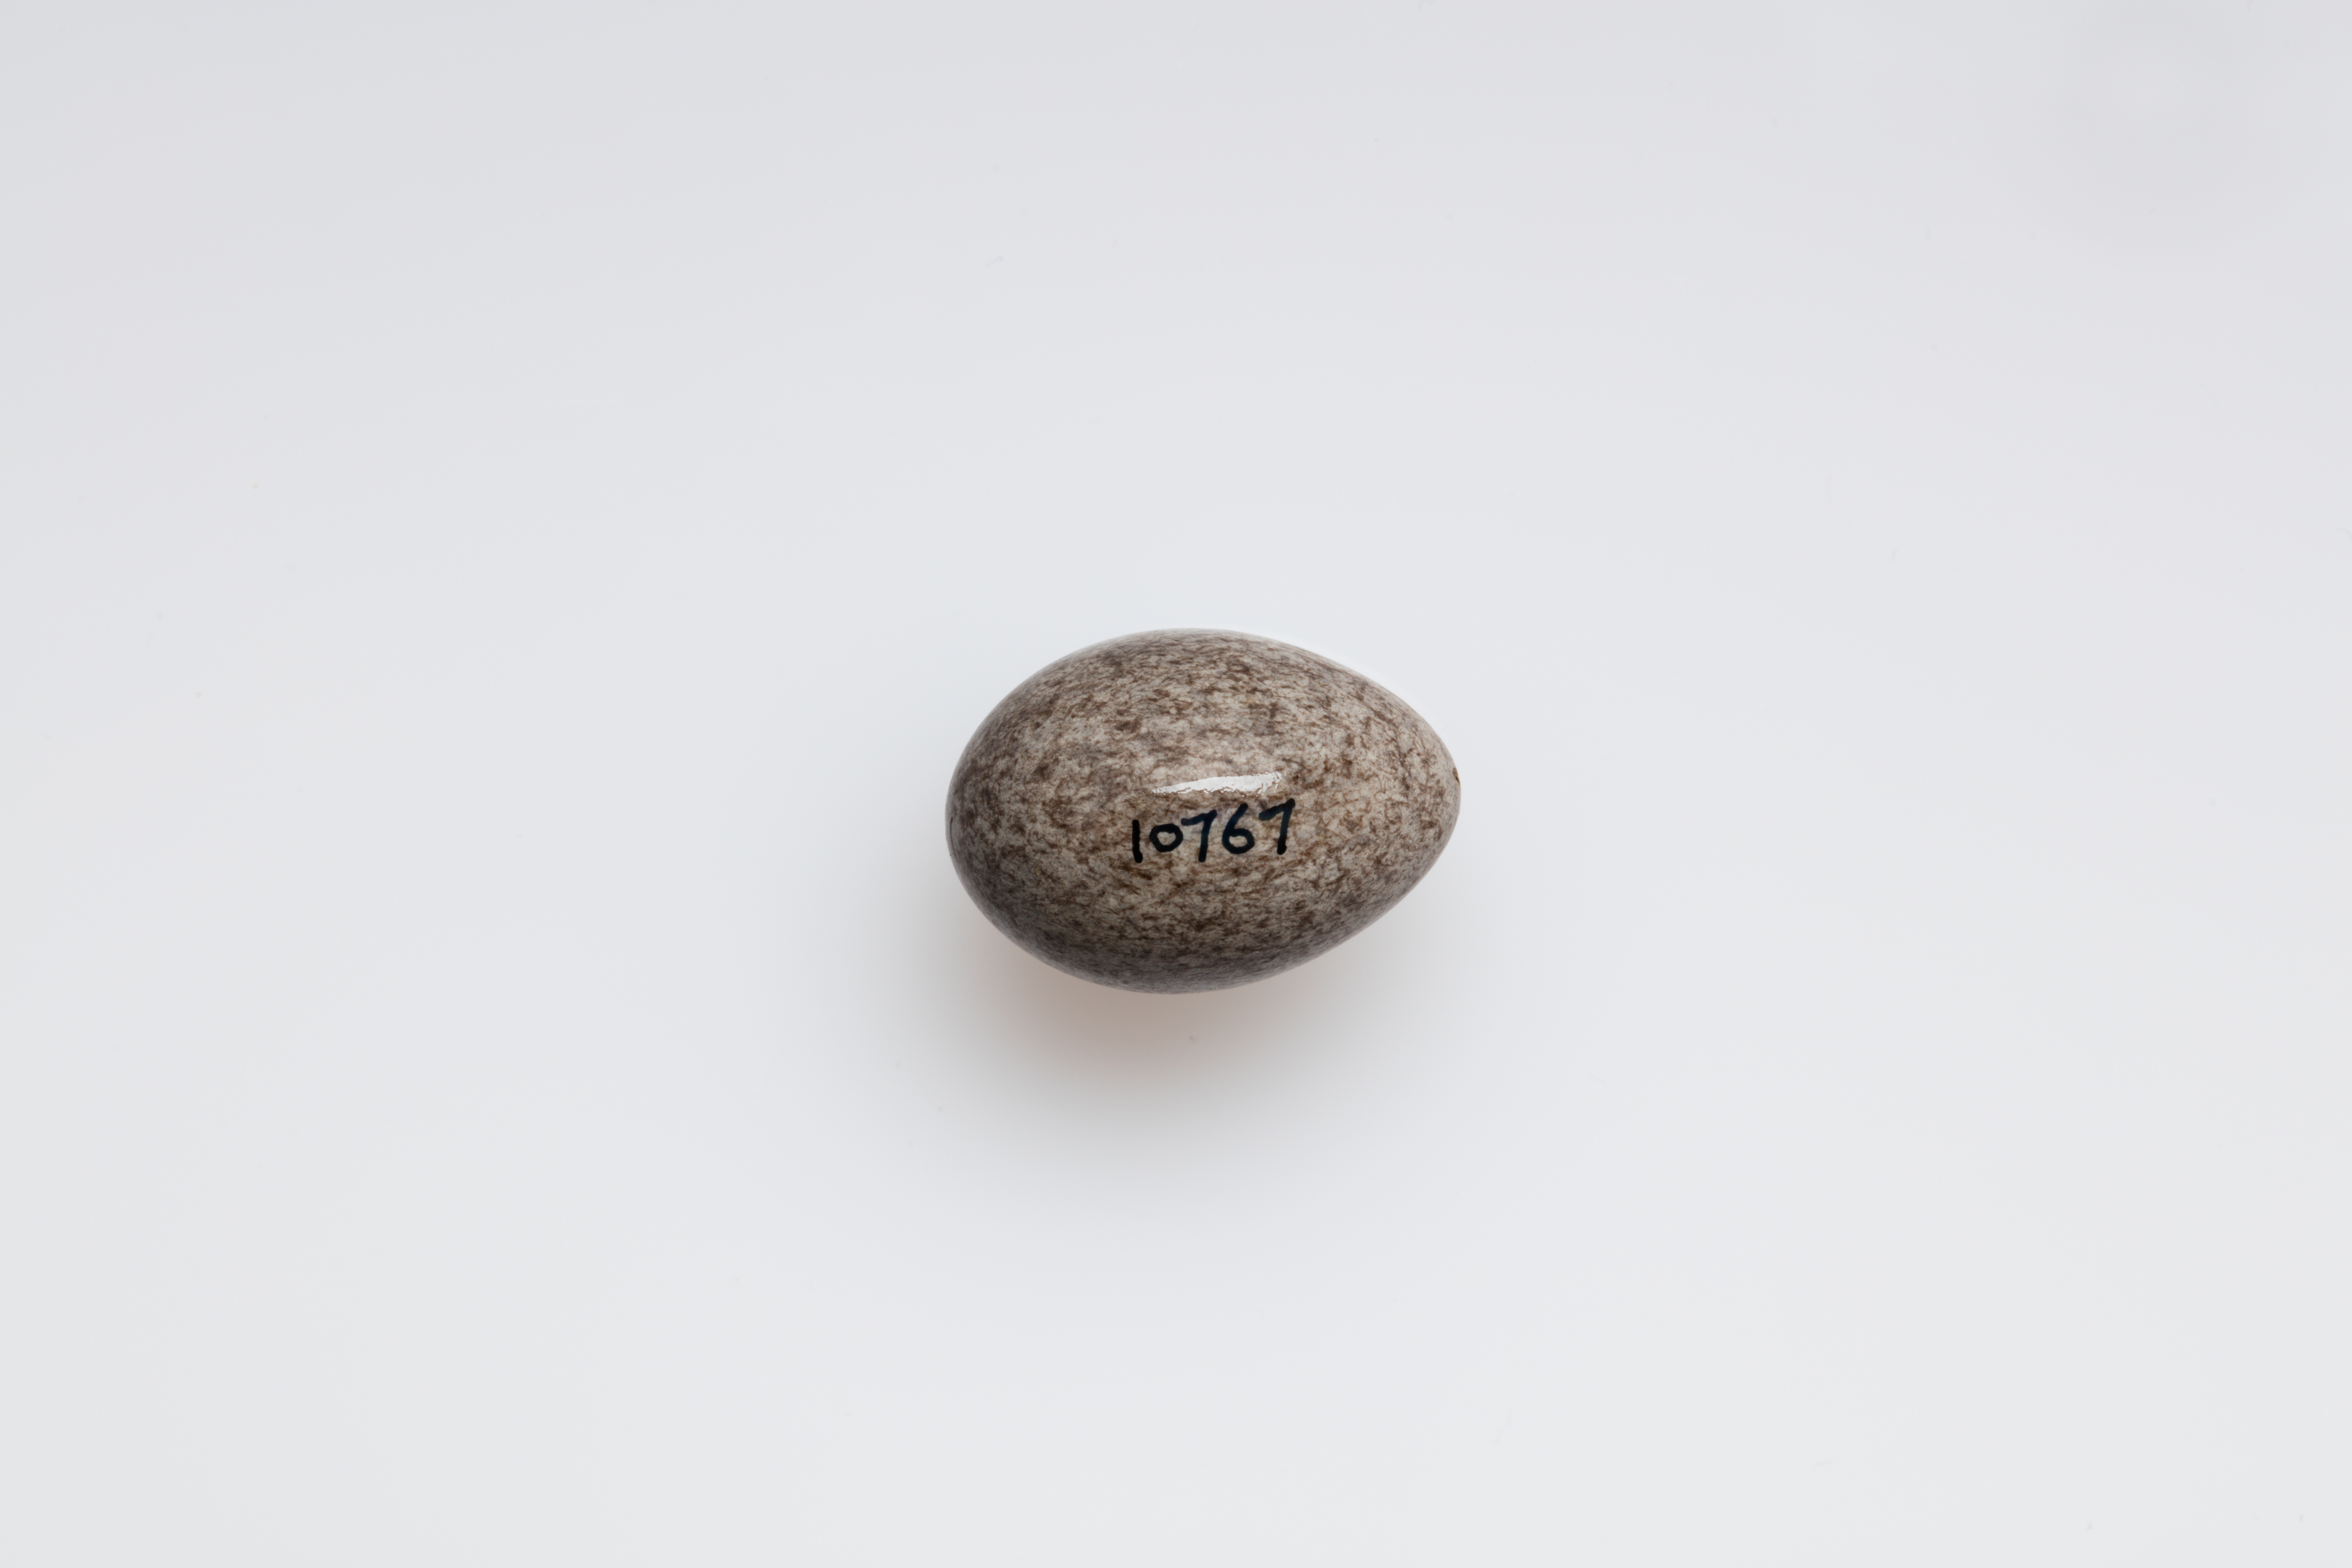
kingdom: Animalia
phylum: Chordata
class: Aves
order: Passeriformes
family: Motacillidae
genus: Anthus
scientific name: Anthus spinoletta
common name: Water pipit
